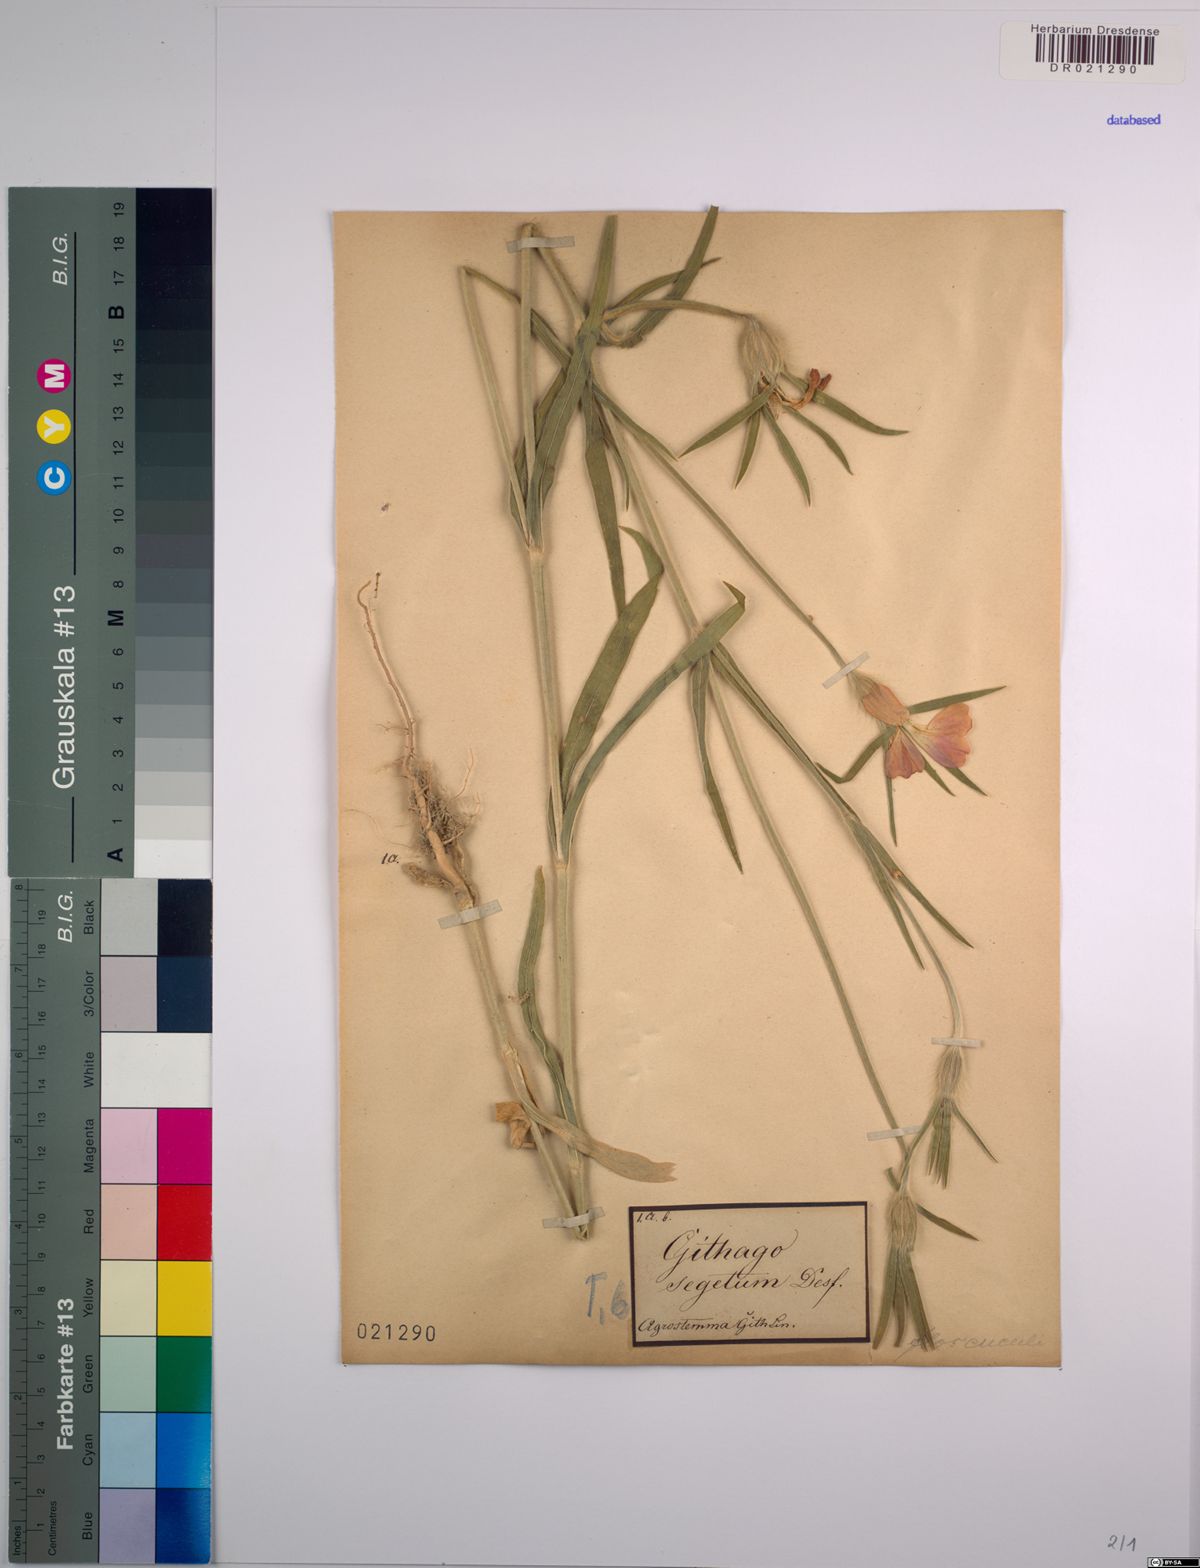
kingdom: Plantae
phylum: Tracheophyta
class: Magnoliopsida
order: Caryophyllales
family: Caryophyllaceae
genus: Agrostemma
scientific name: Agrostemma githago
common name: Common corncockle
